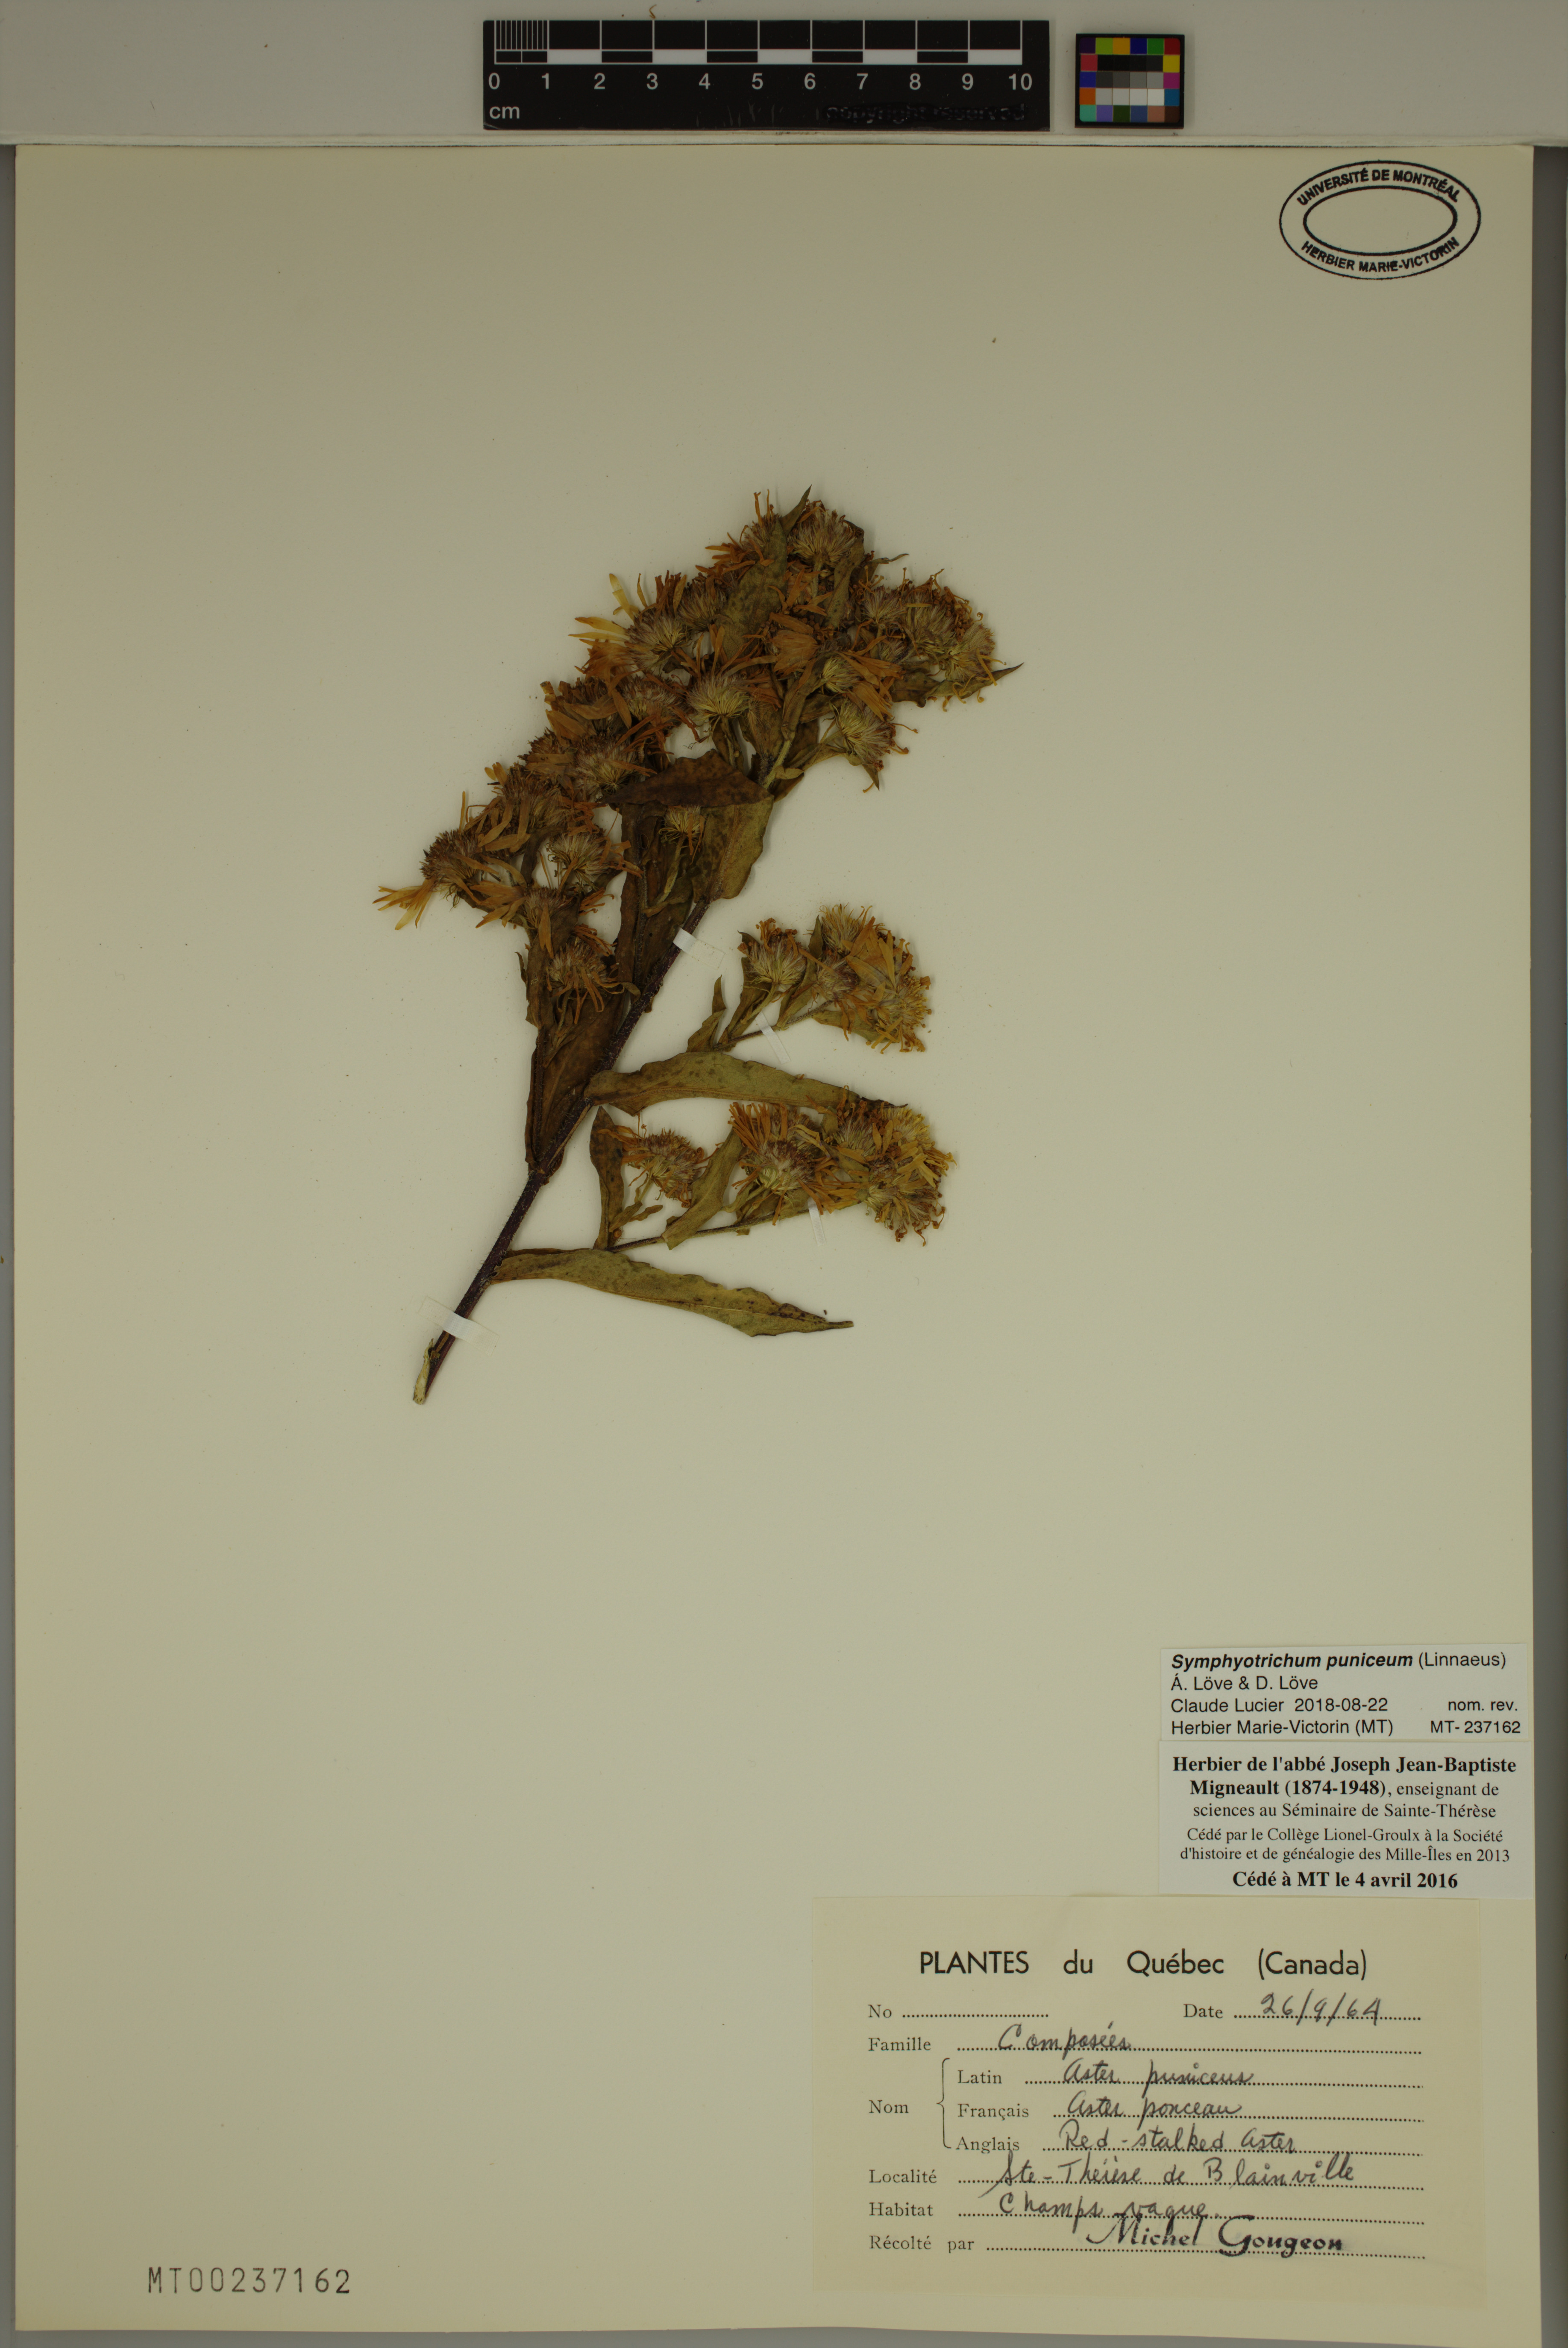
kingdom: Plantae
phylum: Tracheophyta
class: Magnoliopsida
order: Asterales
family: Asteraceae
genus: Symphyotrichum
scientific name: Symphyotrichum puniceum
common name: Bog aster
